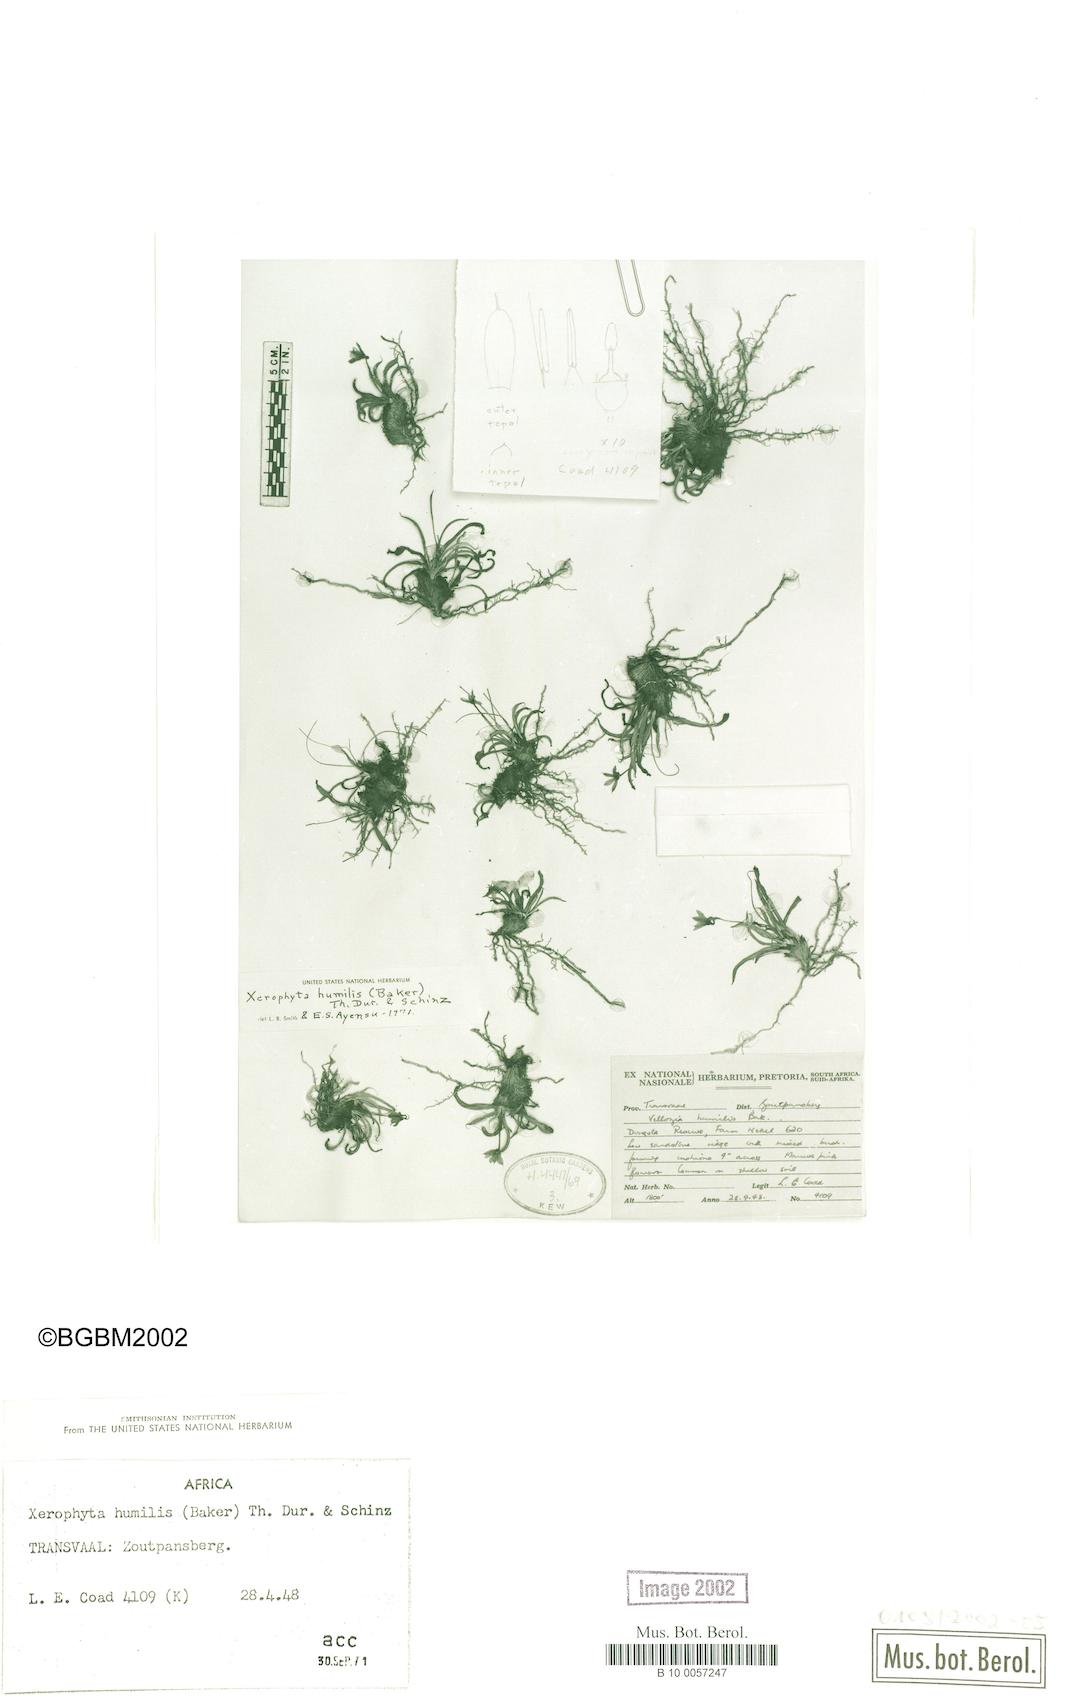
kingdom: Plantae
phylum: Tracheophyta
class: Liliopsida
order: Pandanales
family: Velloziaceae
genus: Xerophyta
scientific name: Xerophyta humilis
